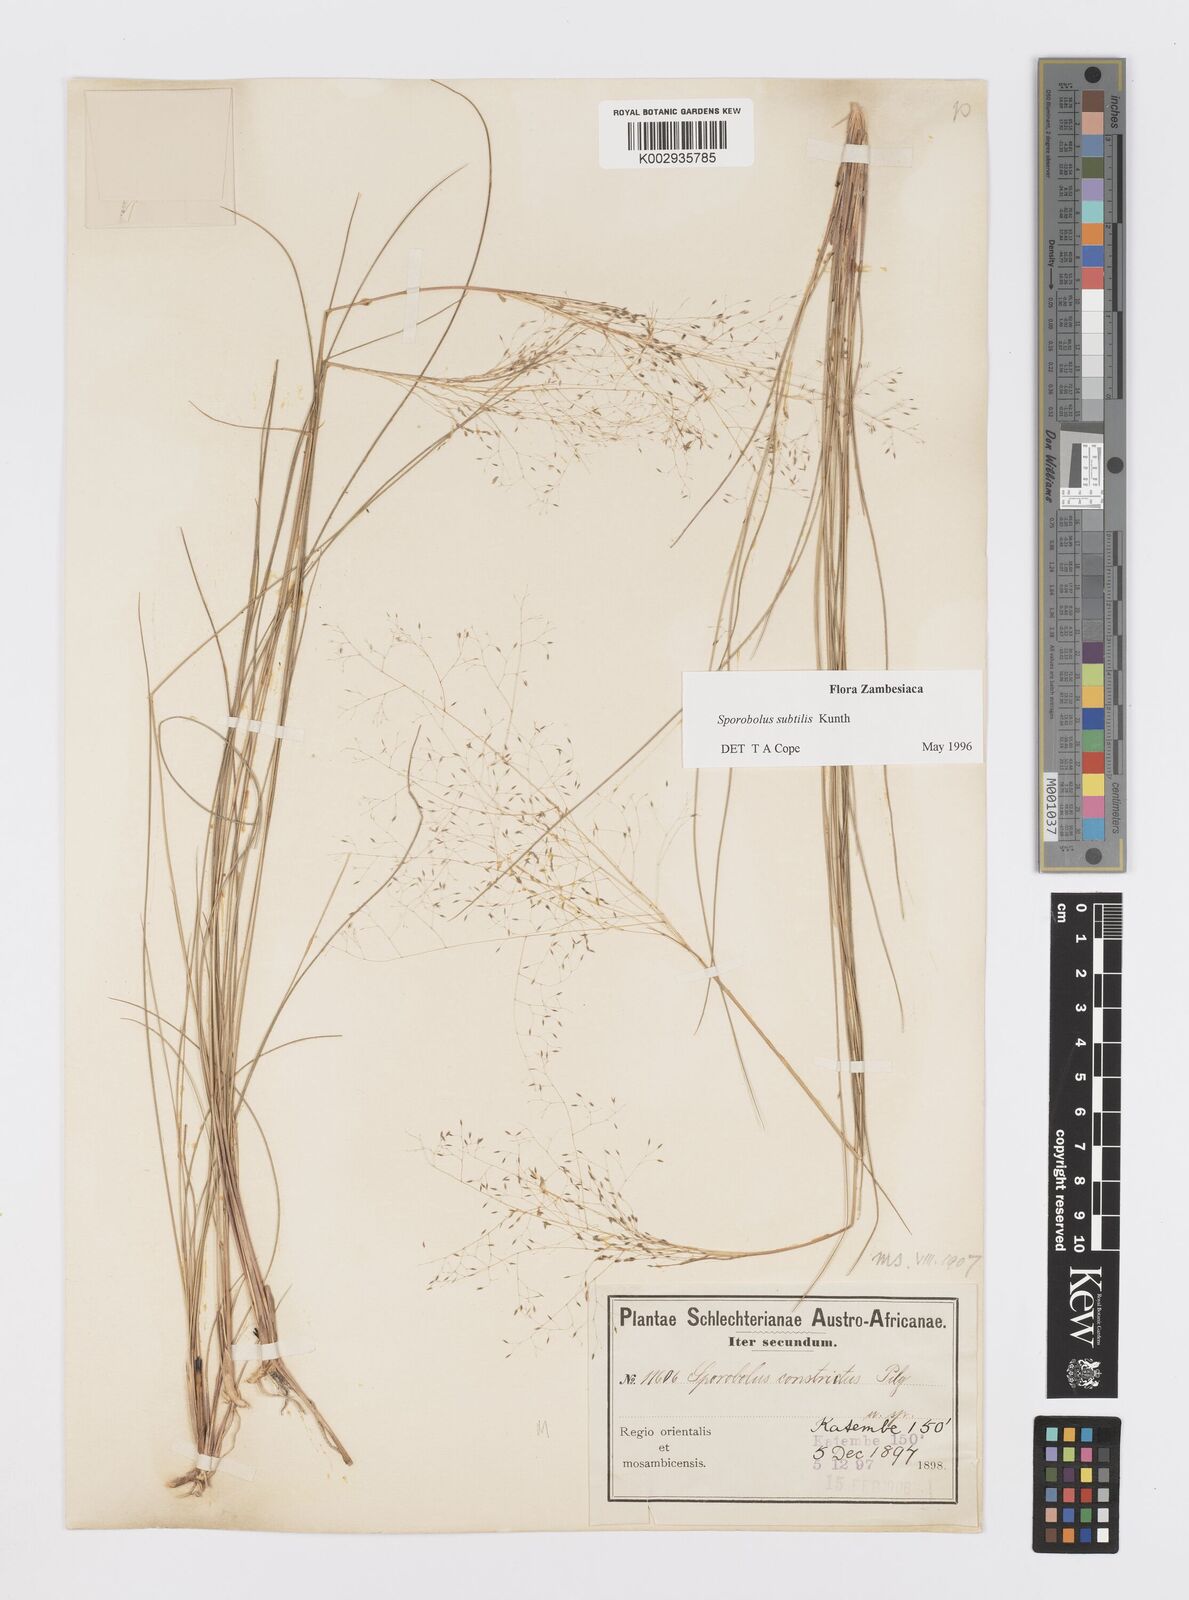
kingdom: Plantae
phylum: Tracheophyta
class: Liliopsida
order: Poales
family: Poaceae
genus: Sporobolus
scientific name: Sporobolus subtilis
